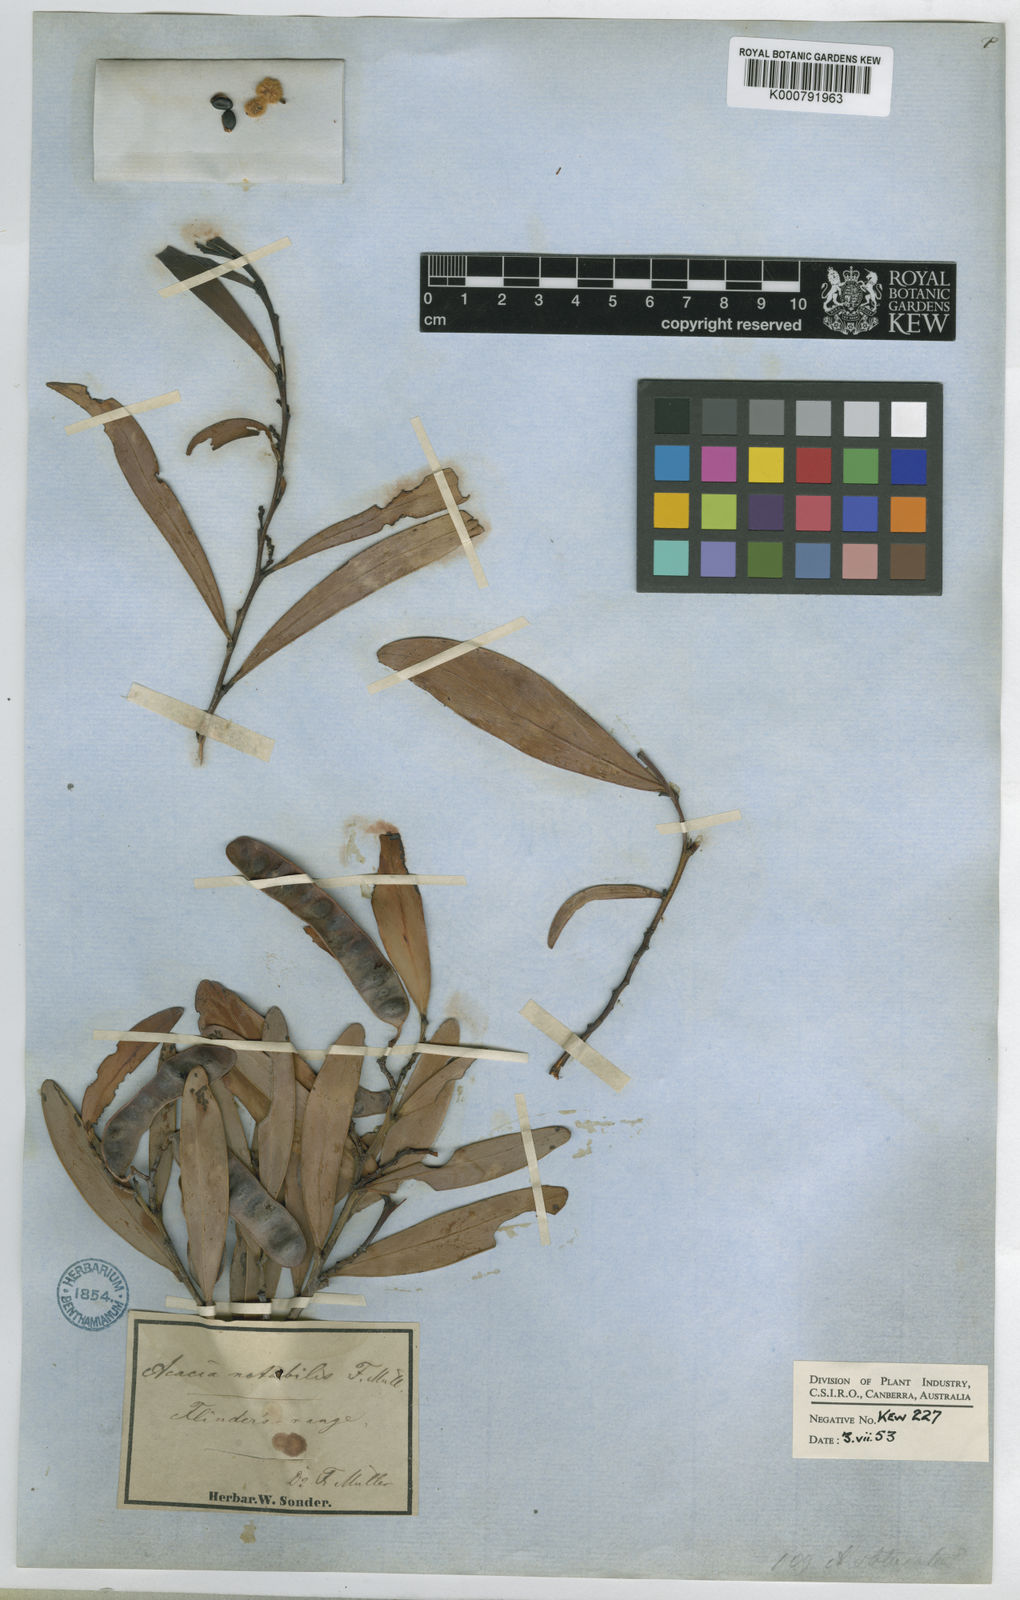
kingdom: Plantae
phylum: Tracheophyta
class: Magnoliopsida
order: Fabales
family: Fabaceae
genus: Acacia
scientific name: Acacia notabilis
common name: Flinders wattle
